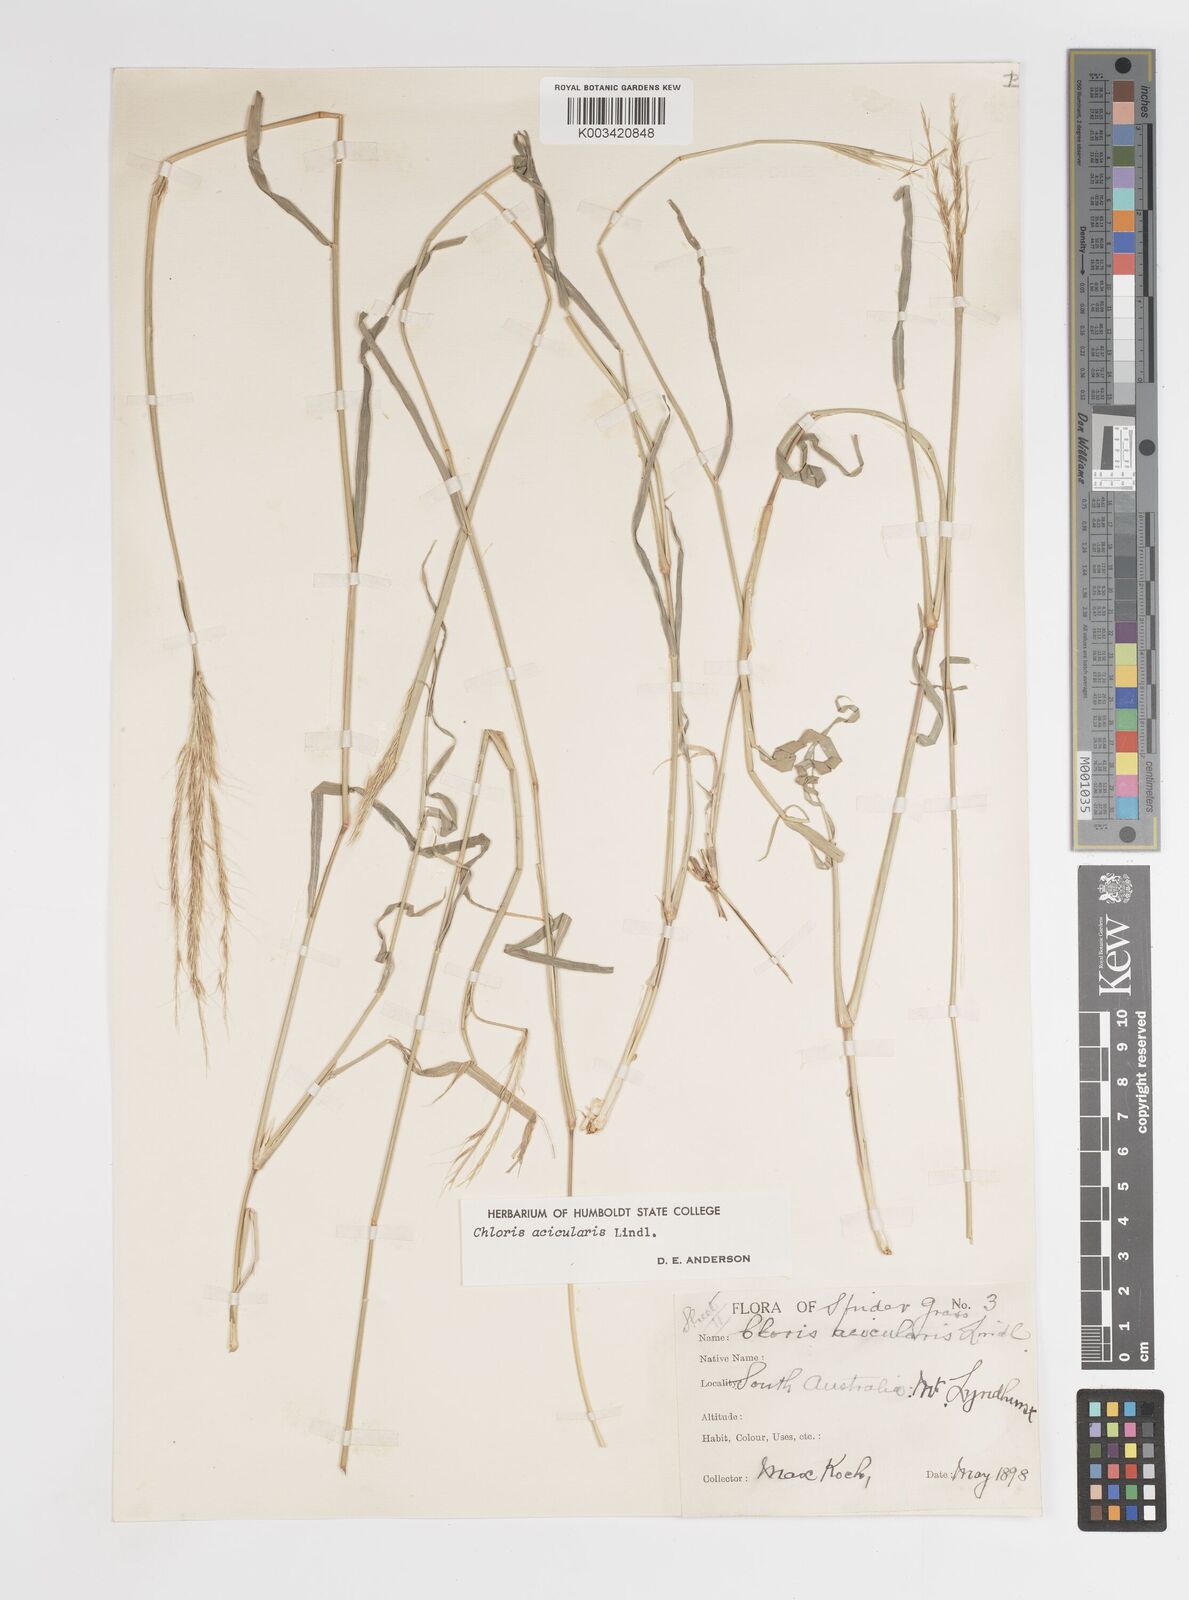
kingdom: Plantae
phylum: Tracheophyta
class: Liliopsida
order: Poales
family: Poaceae
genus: Enteropogon
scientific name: Enteropogon acicularis
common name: Curly windmill grass
